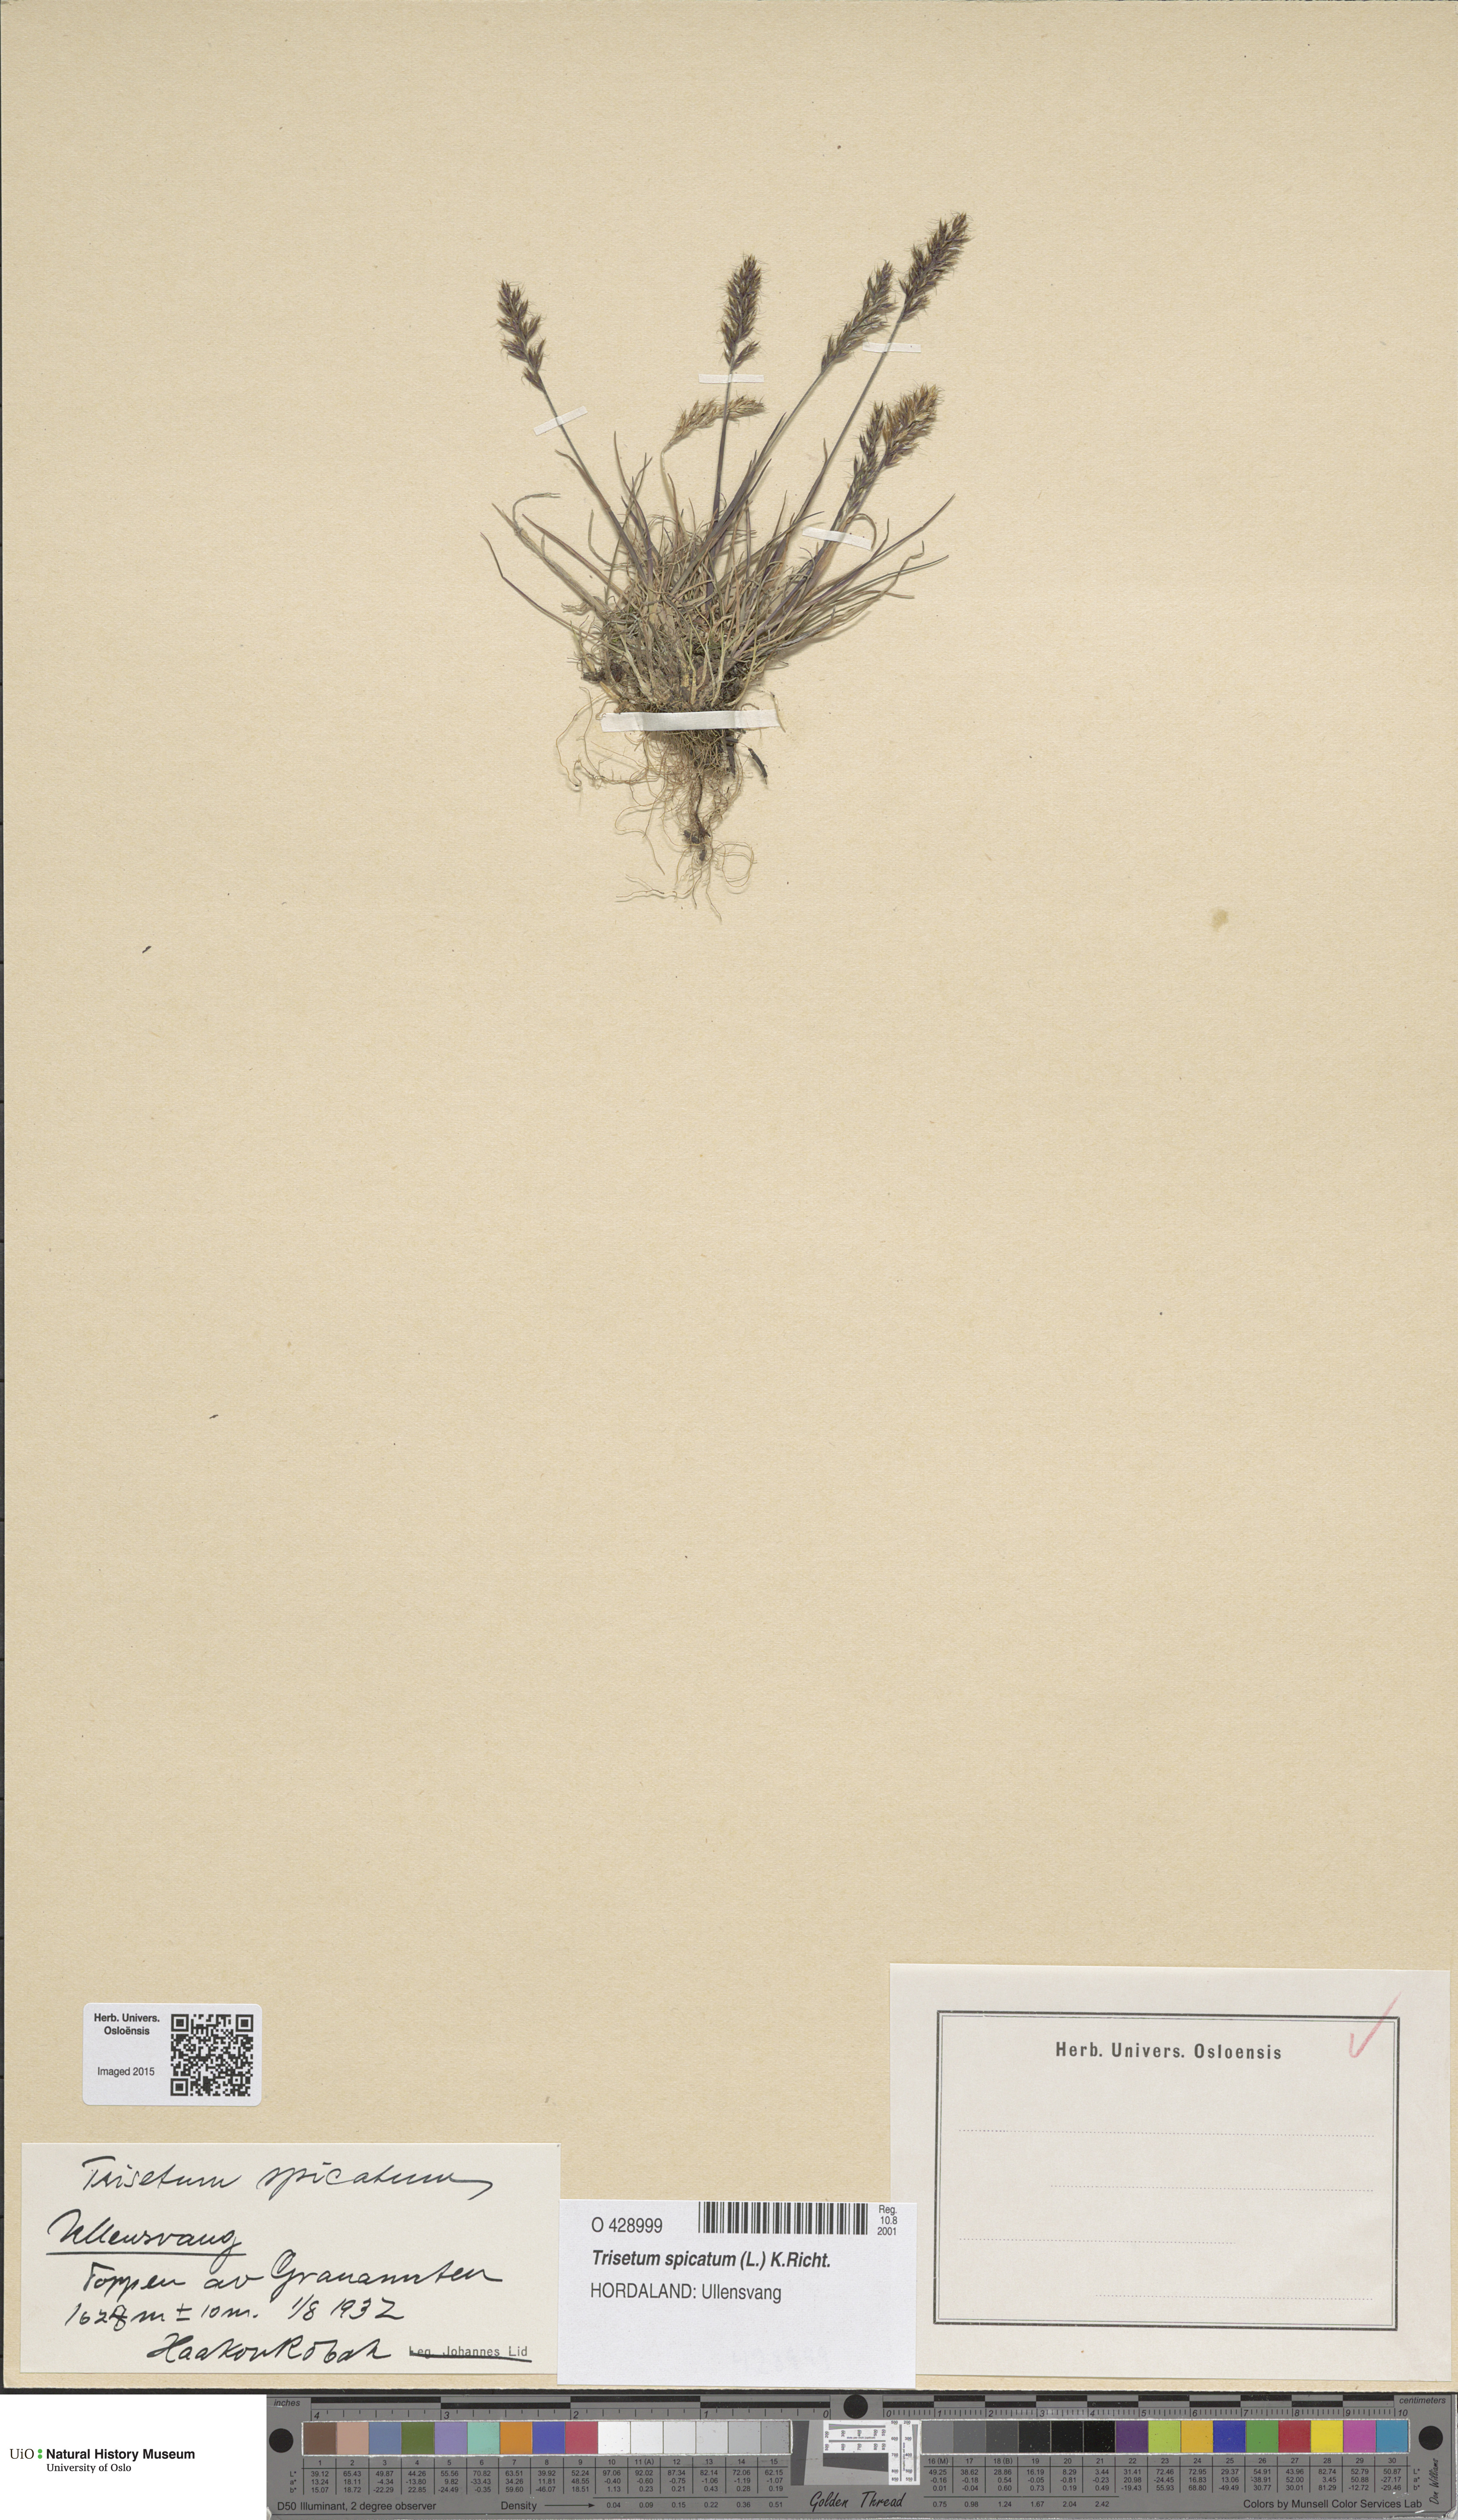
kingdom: Plantae
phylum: Tracheophyta
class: Liliopsida
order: Poales
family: Poaceae
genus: Koeleria
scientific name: Koeleria spicata
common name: Mountain trisetum
